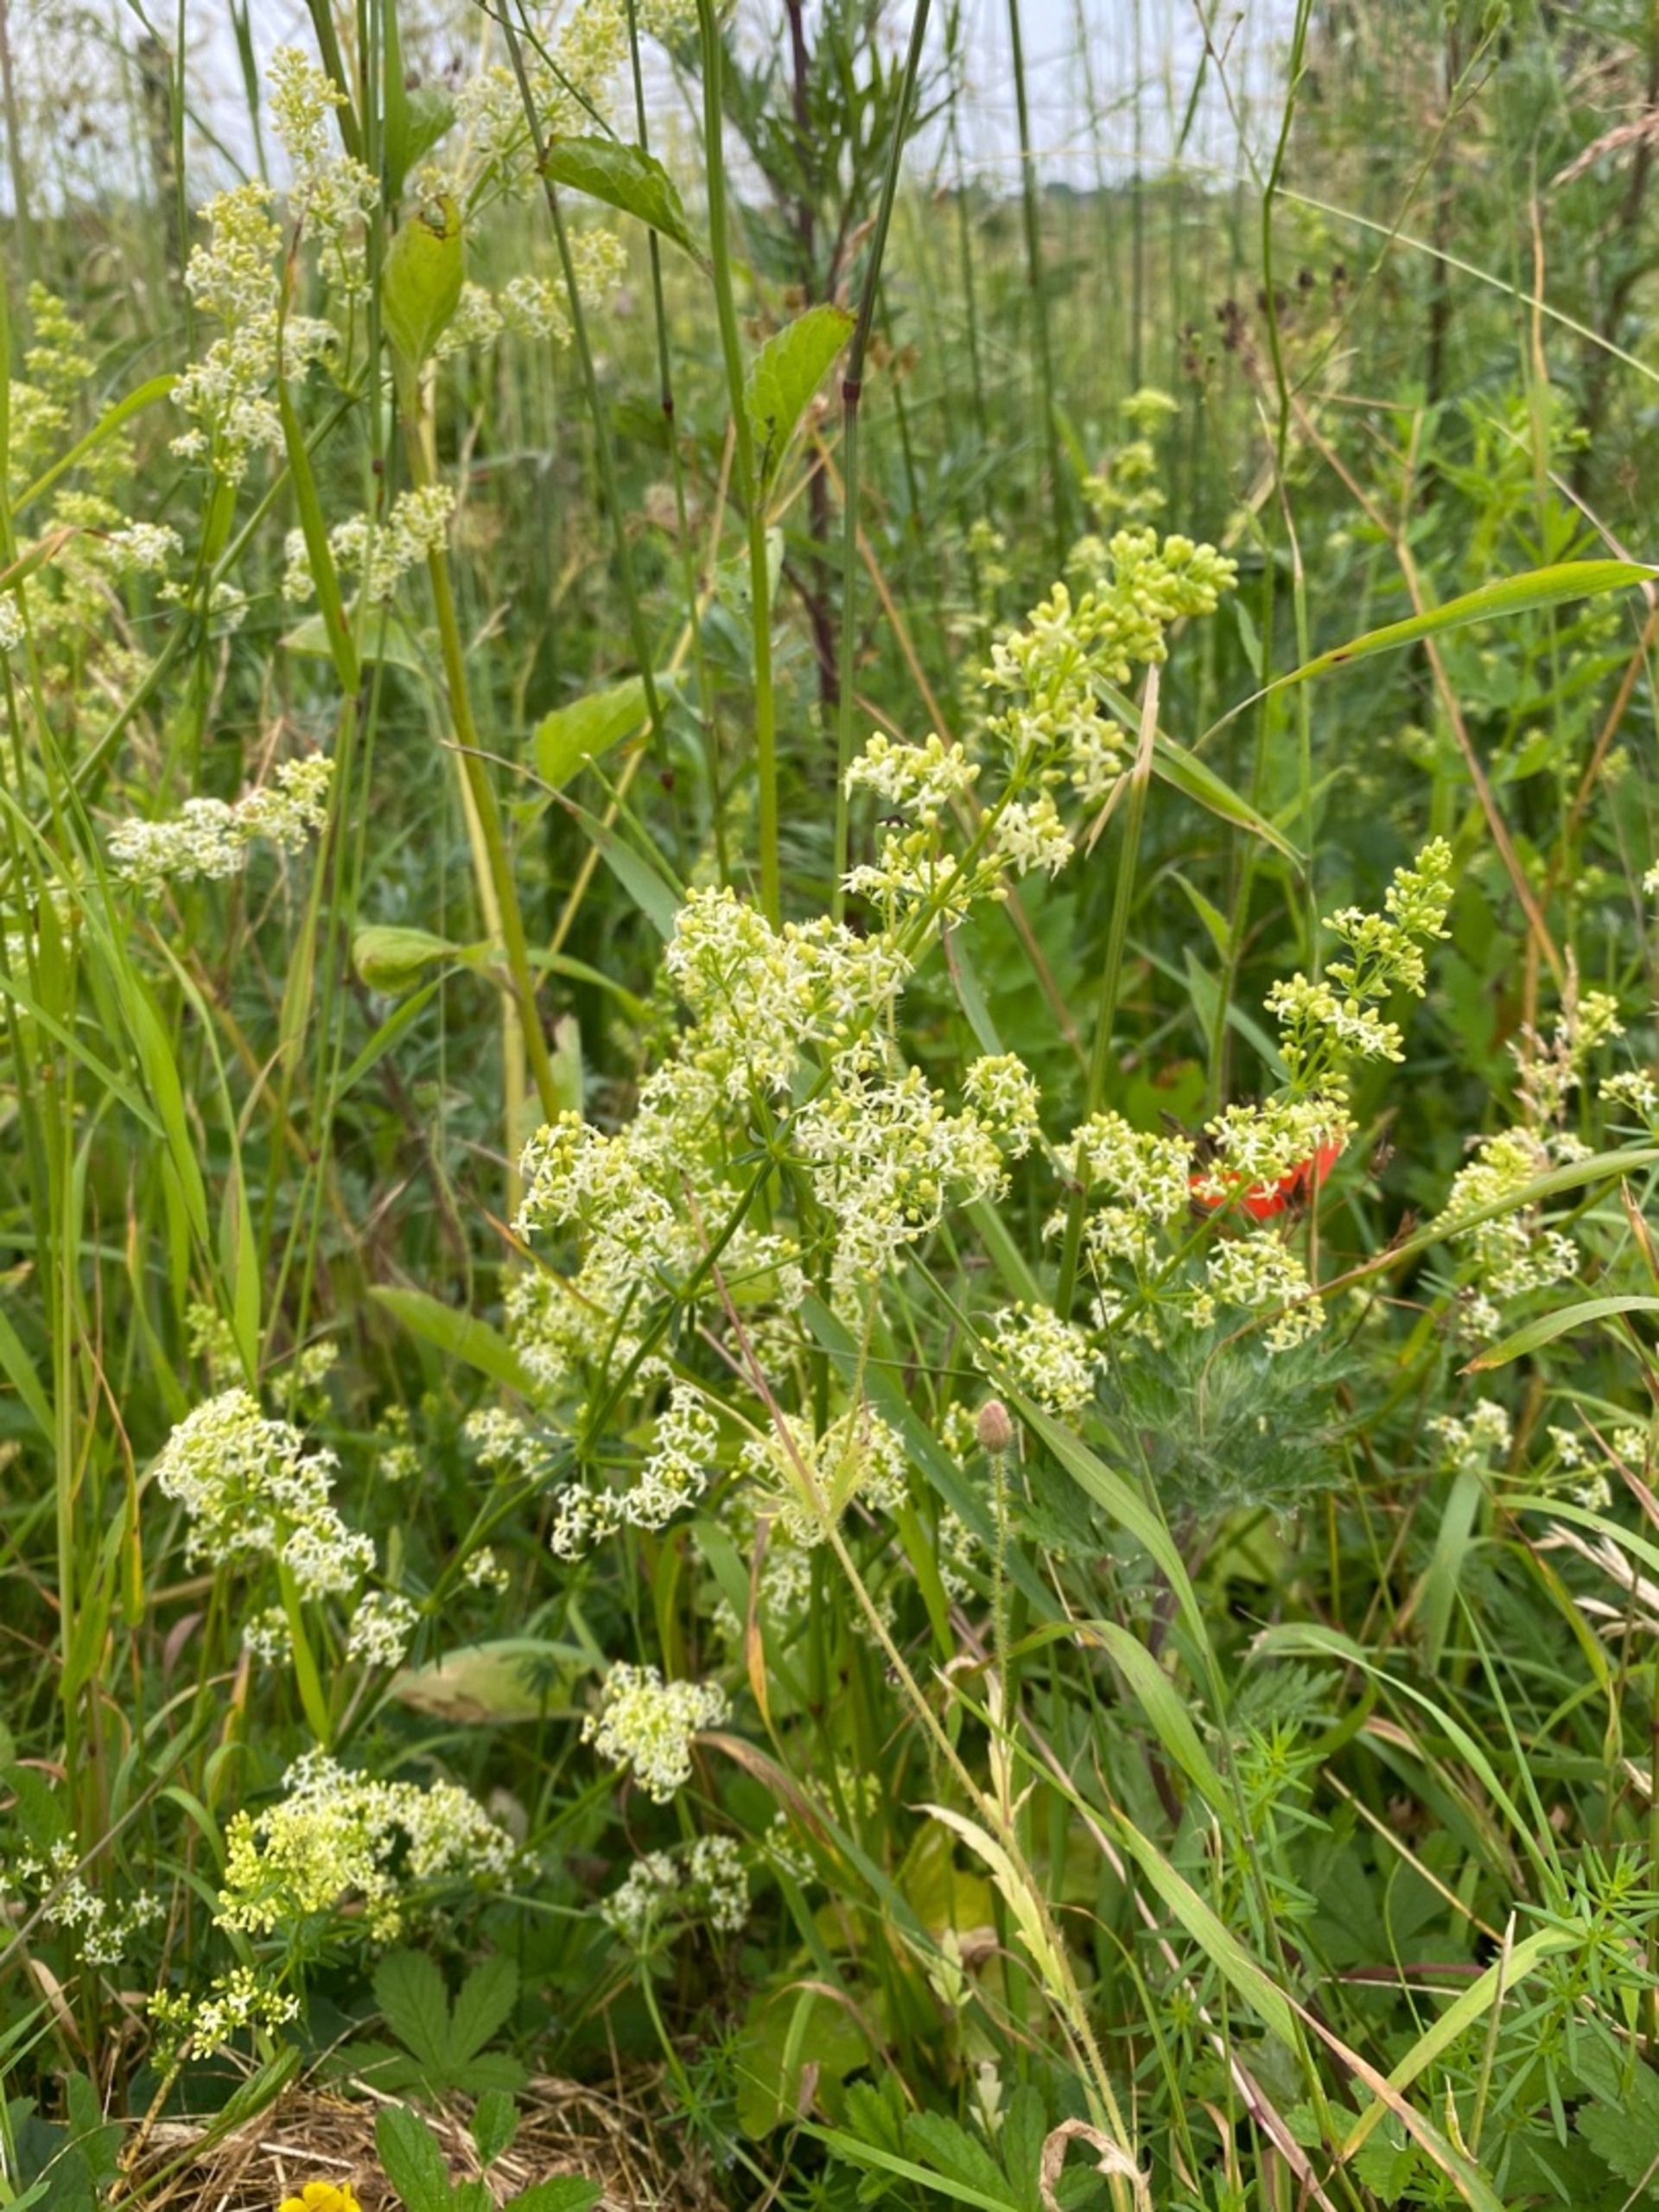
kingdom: Plantae
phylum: Tracheophyta
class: Magnoliopsida
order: Gentianales
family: Rubiaceae
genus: Galium
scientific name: Galium mollugo
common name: Hvid snerre
